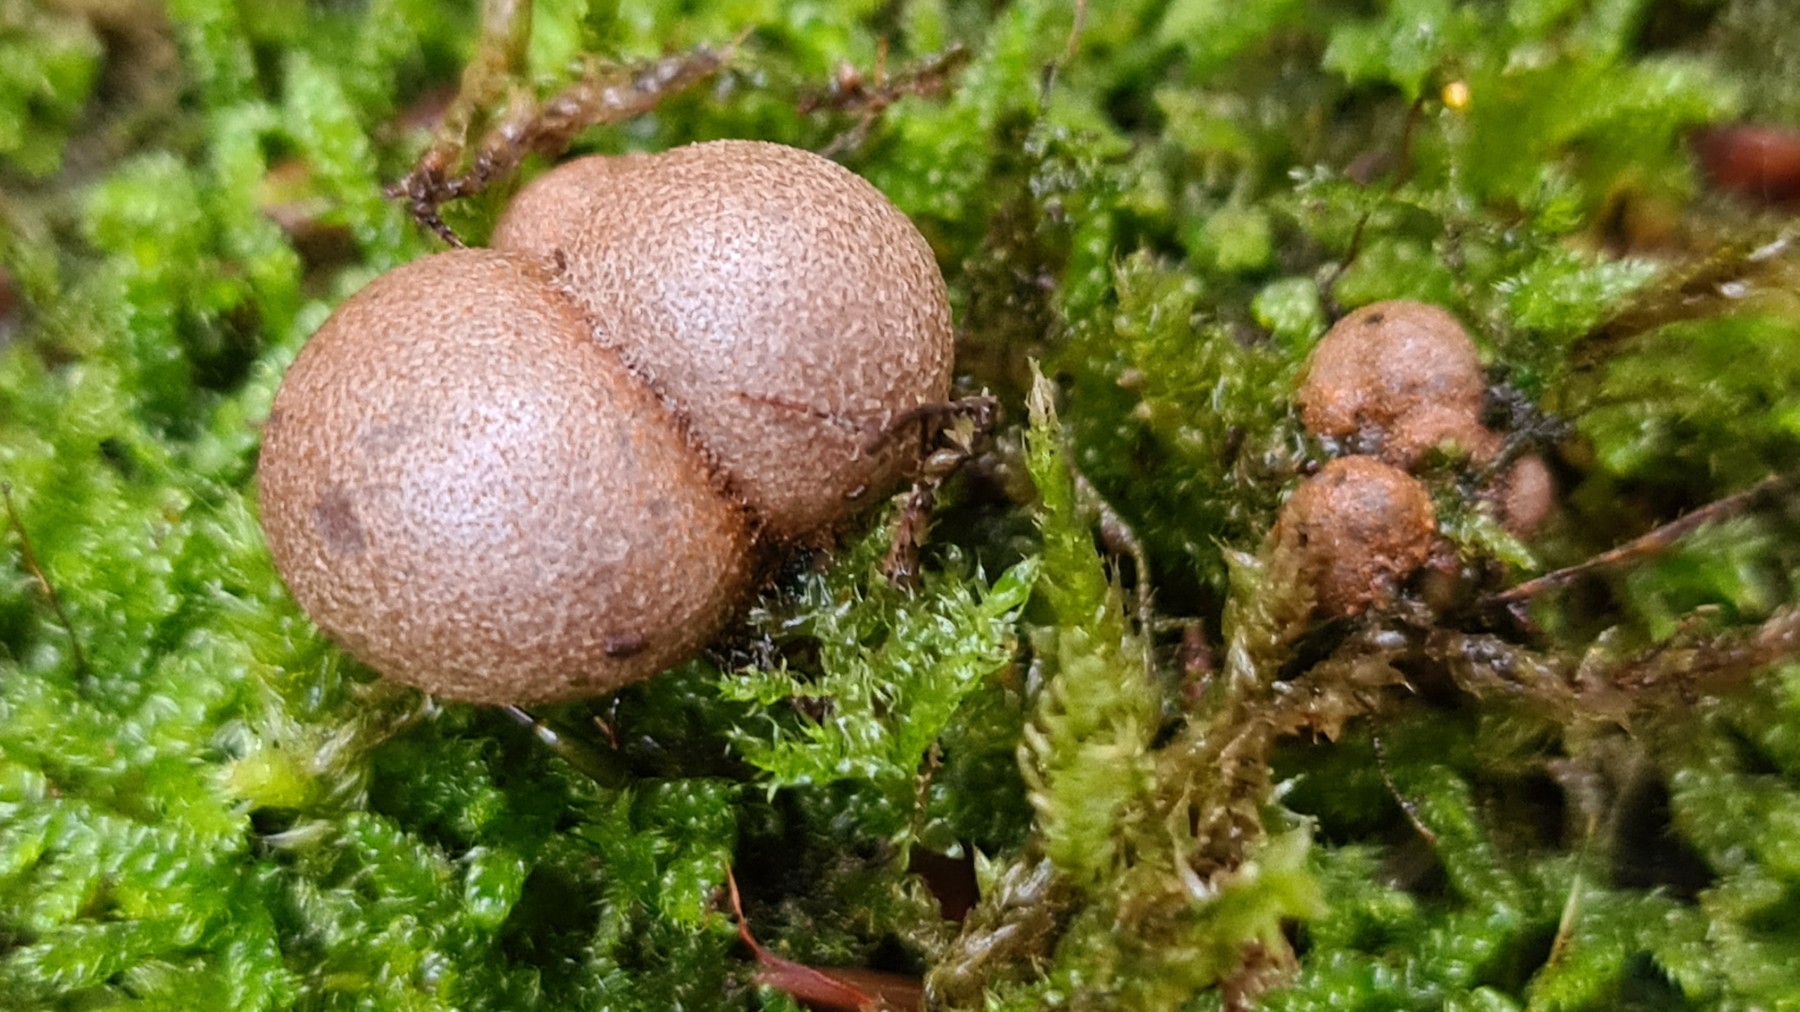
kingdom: Protozoa
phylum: Mycetozoa
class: Myxomycetes
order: Cribrariales
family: Tubiferaceae
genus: Lycogala
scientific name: Lycogala epidendrum
